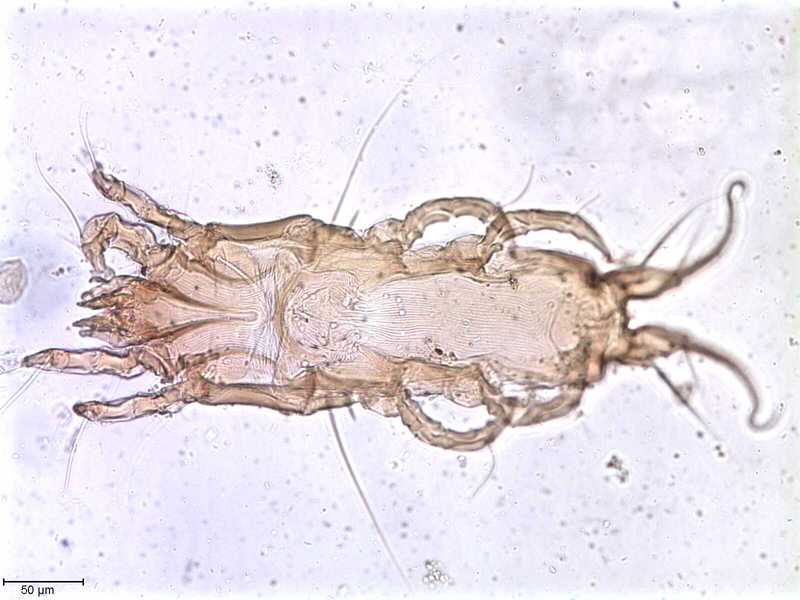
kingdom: Animalia
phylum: Arthropoda
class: Arachnida
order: Sarcoptiformes
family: Proctophyllodidae
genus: Proctophyllodes
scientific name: Proctophyllodes
